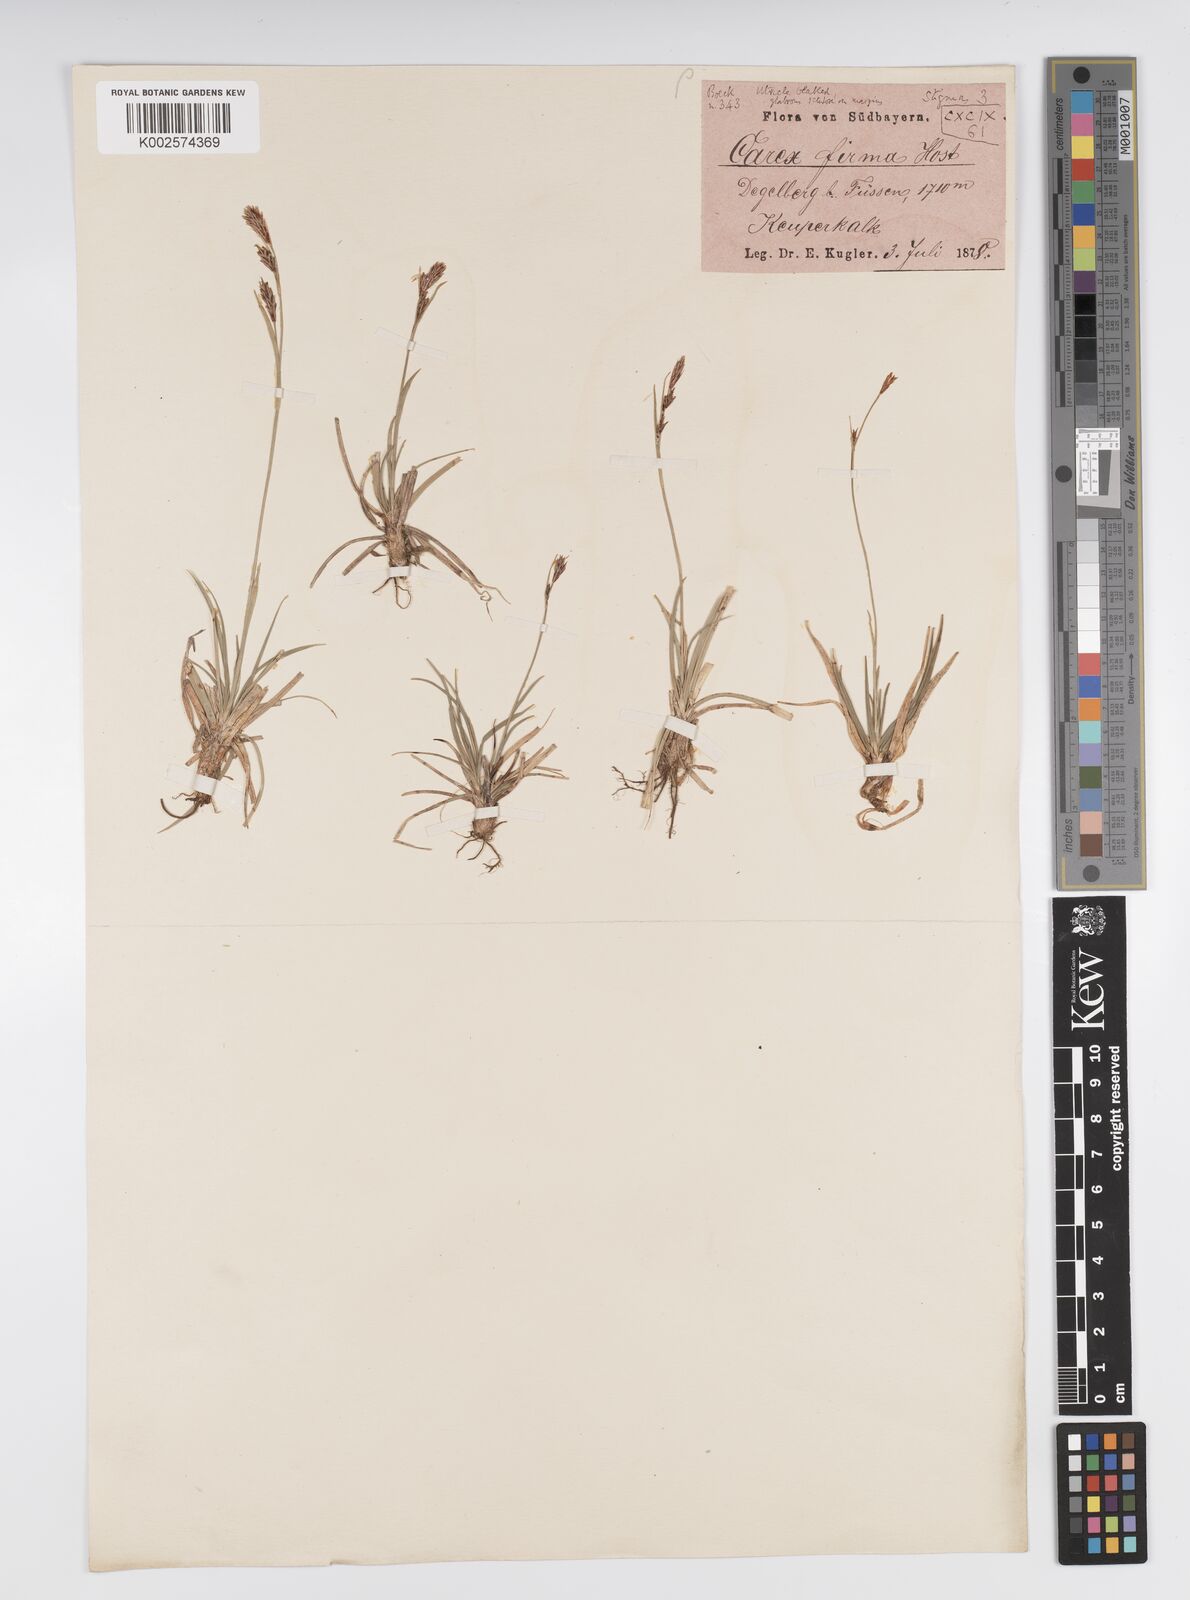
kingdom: Plantae
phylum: Tracheophyta
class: Liliopsida
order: Poales
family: Cyperaceae
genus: Carex
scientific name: Carex firma
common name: Dwarf pillow sedge
